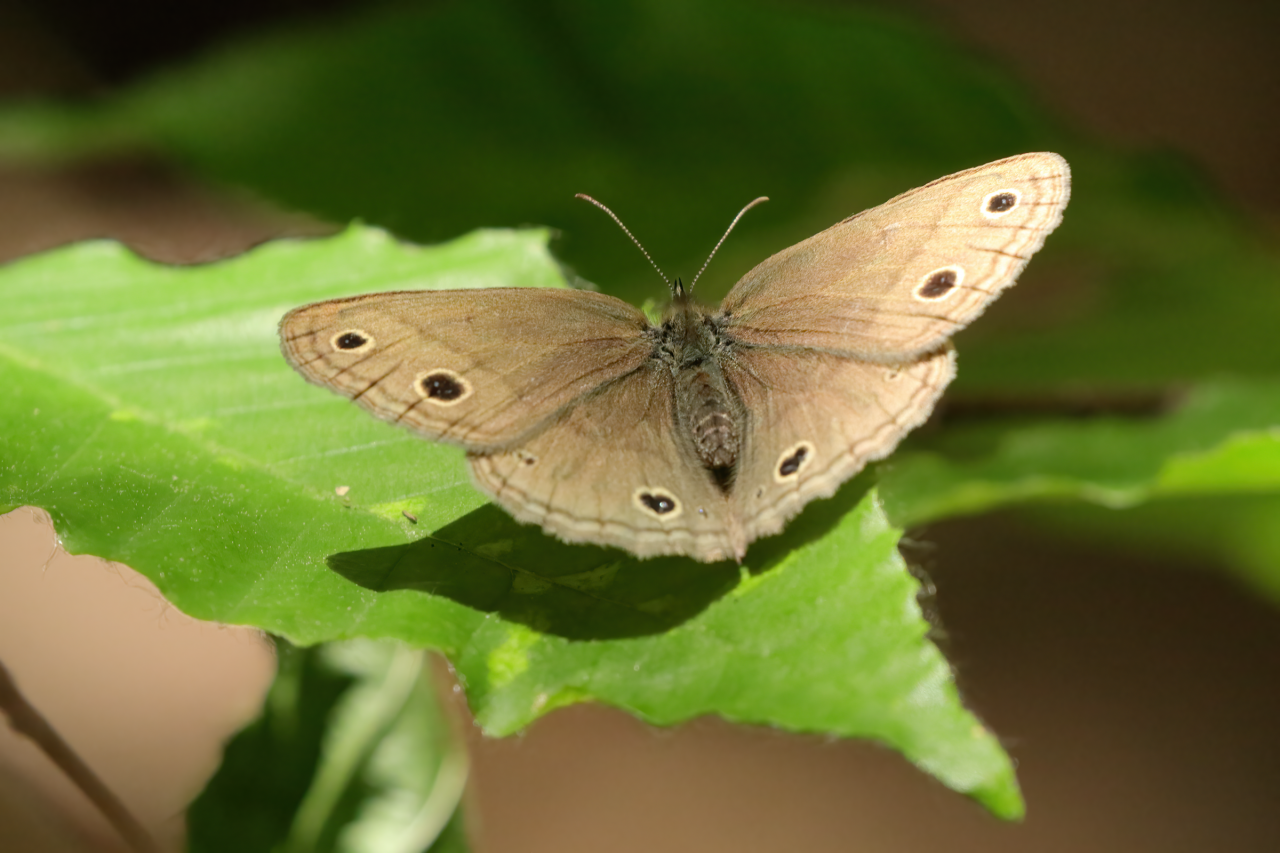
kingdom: Animalia
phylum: Arthropoda
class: Insecta
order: Lepidoptera
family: Nymphalidae
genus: Euptychia
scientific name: Euptychia cymela
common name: Little Wood Satyr
